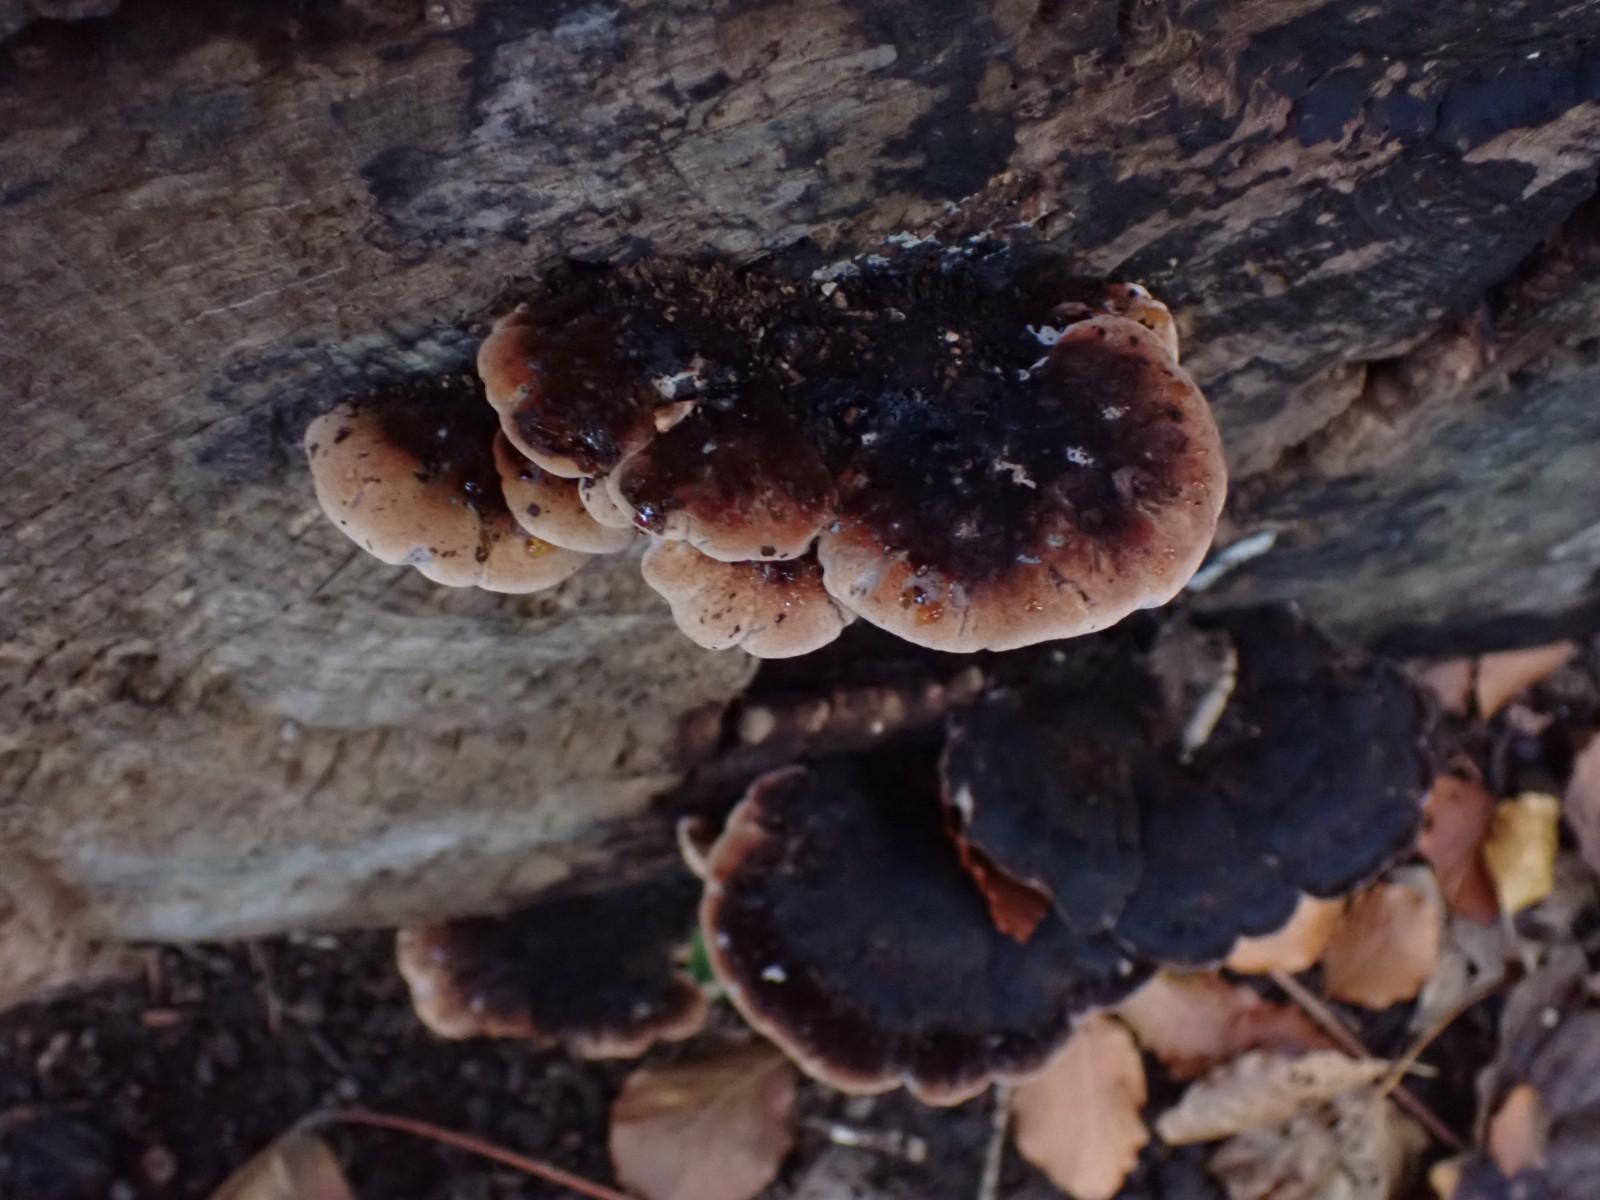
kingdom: Fungi
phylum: Basidiomycota
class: Agaricomycetes
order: Polyporales
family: Ischnodermataceae
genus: Ischnoderma
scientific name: Ischnoderma resinosum
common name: løv-tjæreporesvamp
